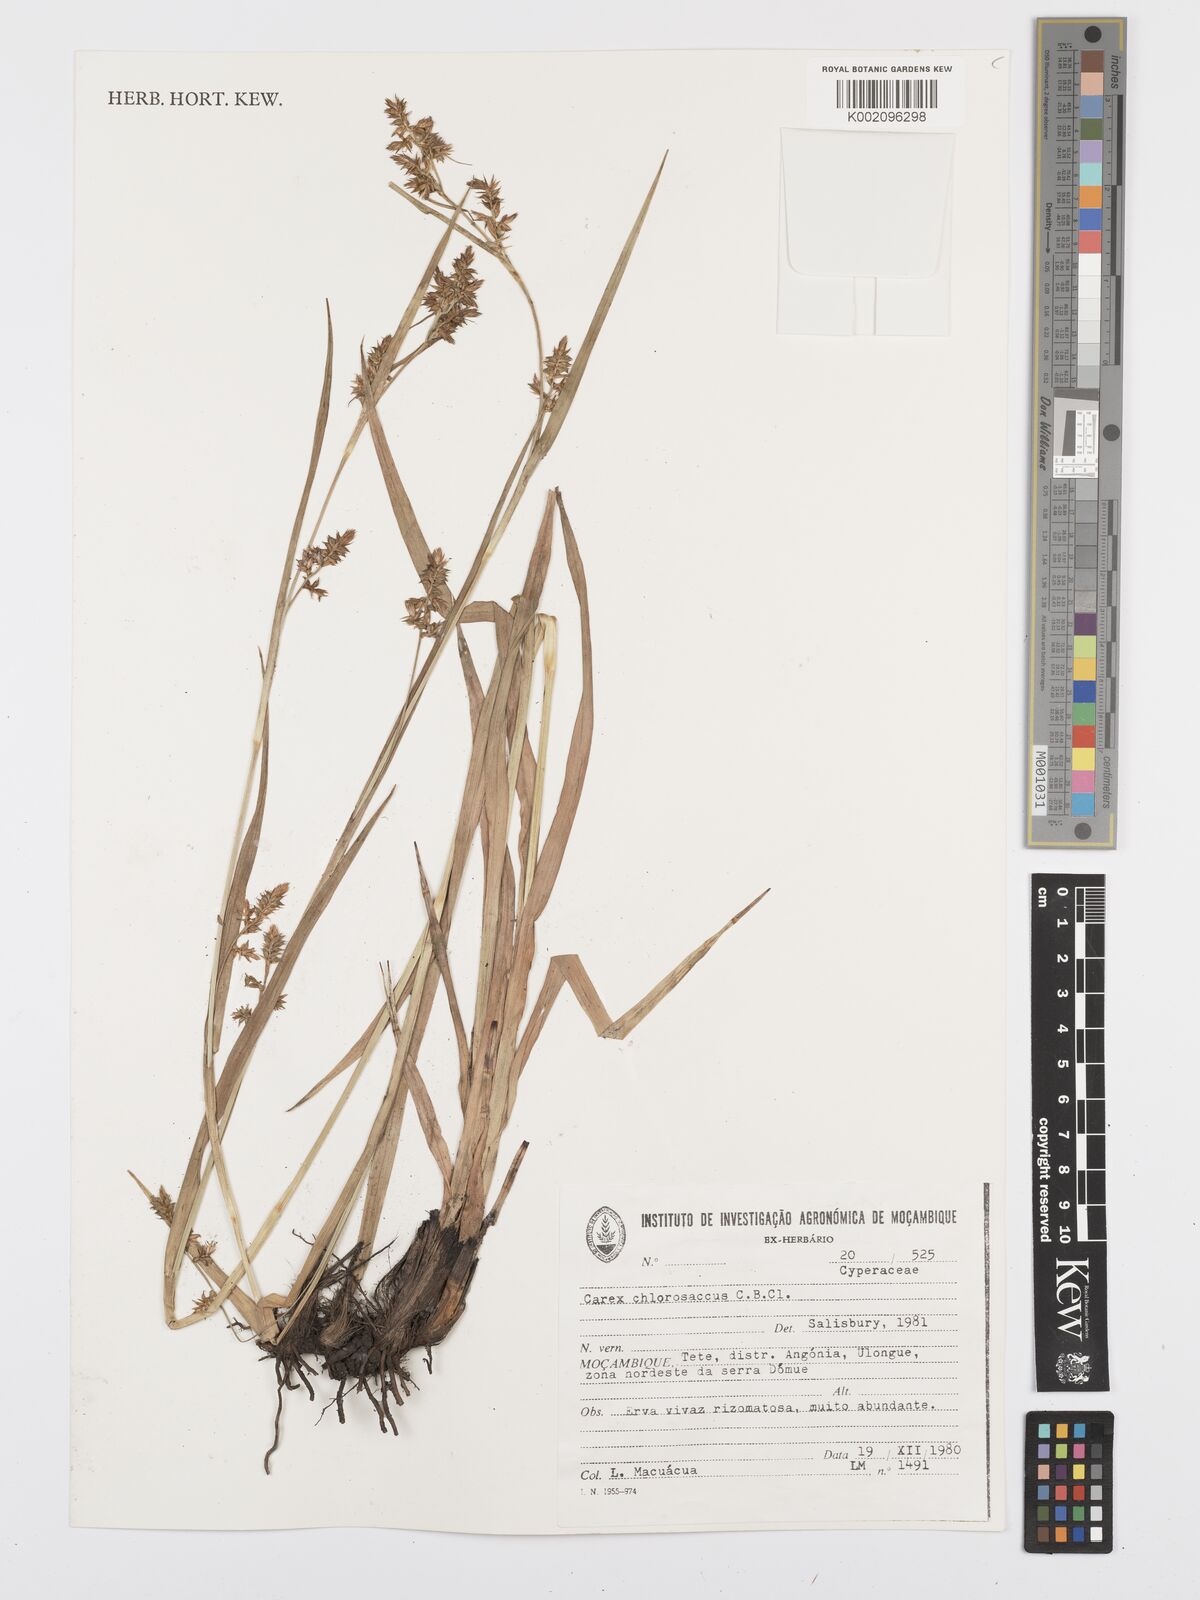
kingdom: Plantae
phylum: Tracheophyta
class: Liliopsida
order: Poales
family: Cyperaceae
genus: Carex
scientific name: Carex chlorosaccus
